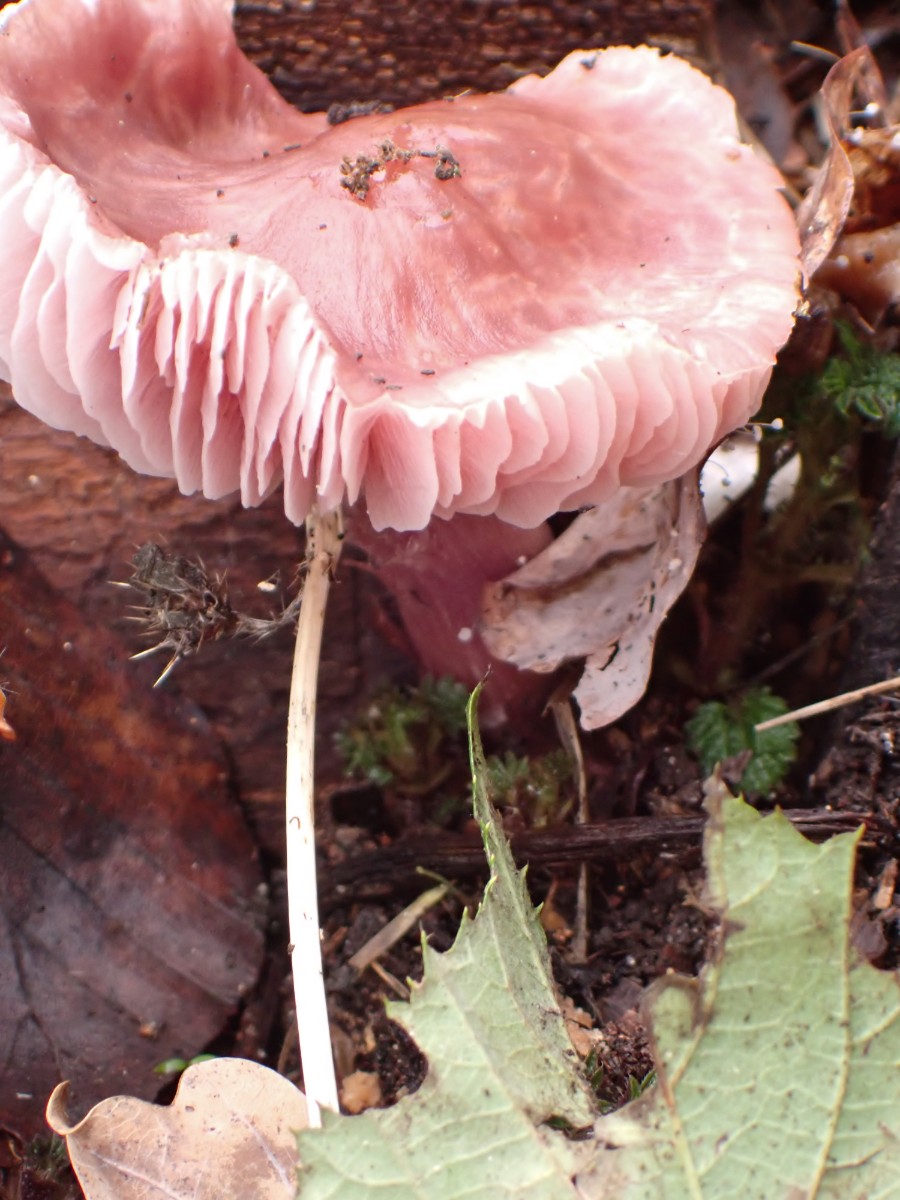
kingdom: Fungi
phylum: Basidiomycota
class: Agaricomycetes
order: Agaricales
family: Mycenaceae
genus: Mycena
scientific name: Mycena rosea
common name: rosa huesvamp
